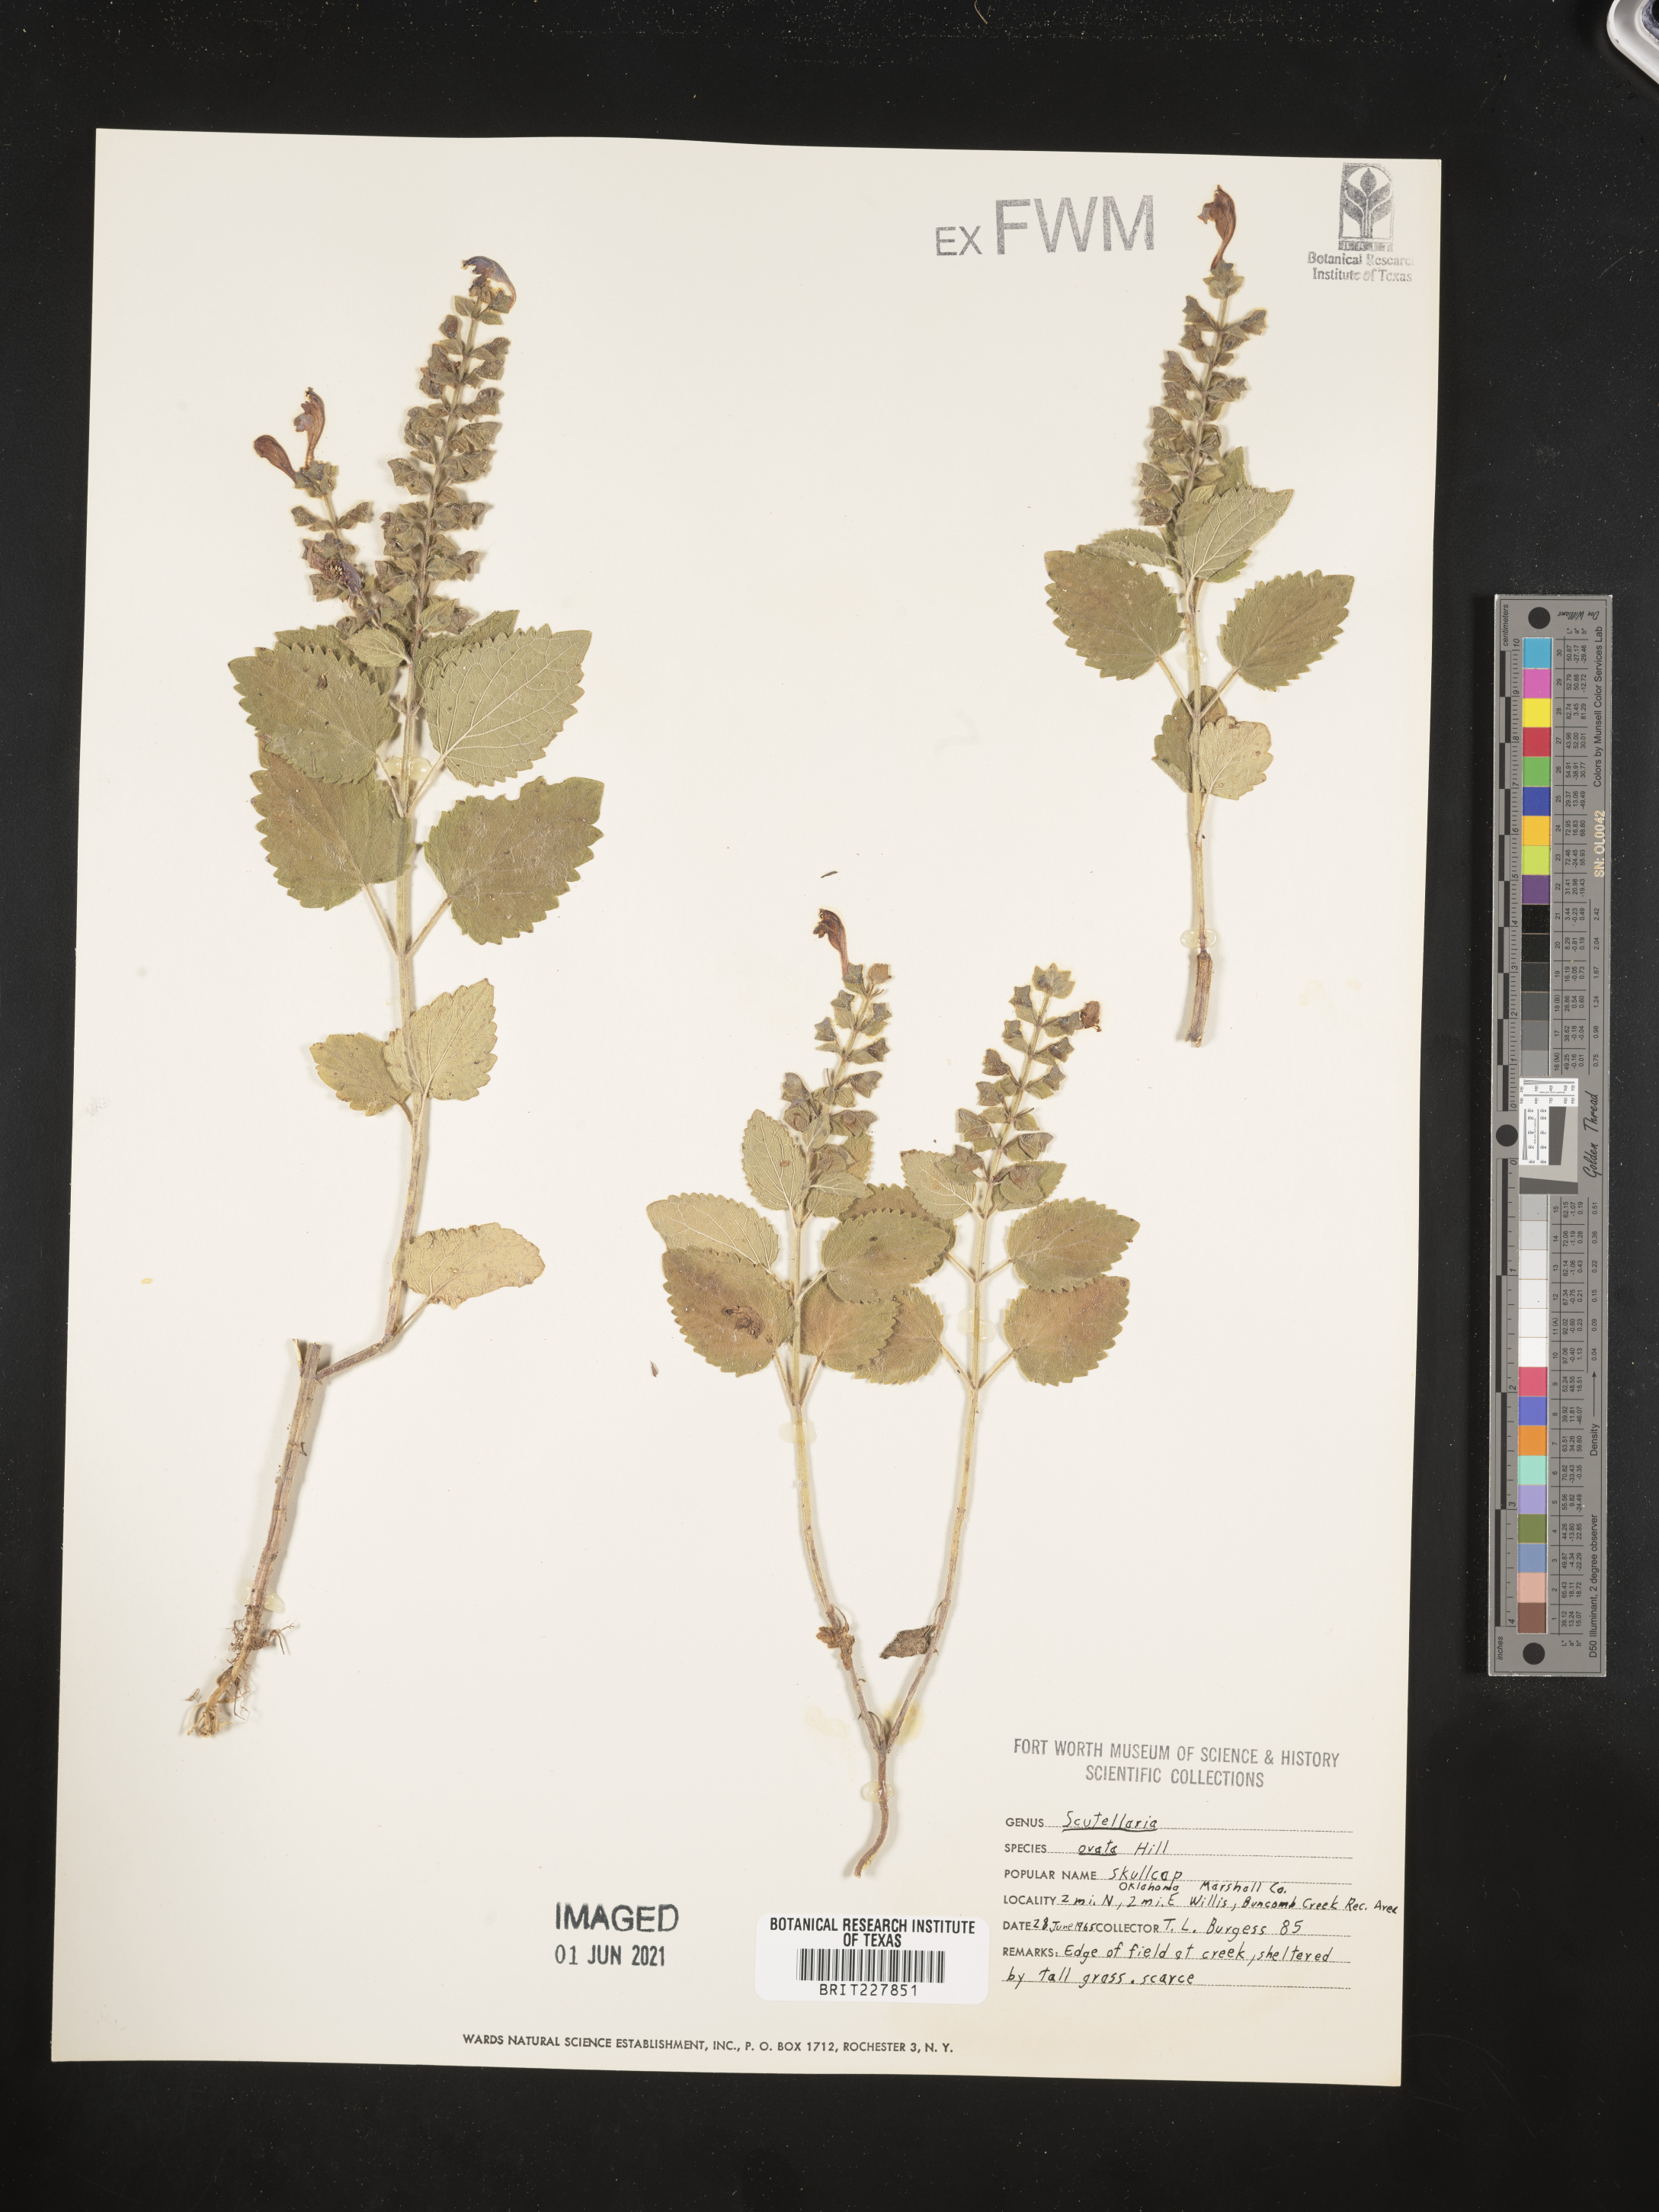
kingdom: Plantae
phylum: Tracheophyta
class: Magnoliopsida
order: Lamiales
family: Lamiaceae
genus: Scutellaria
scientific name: Scutellaria ovata
